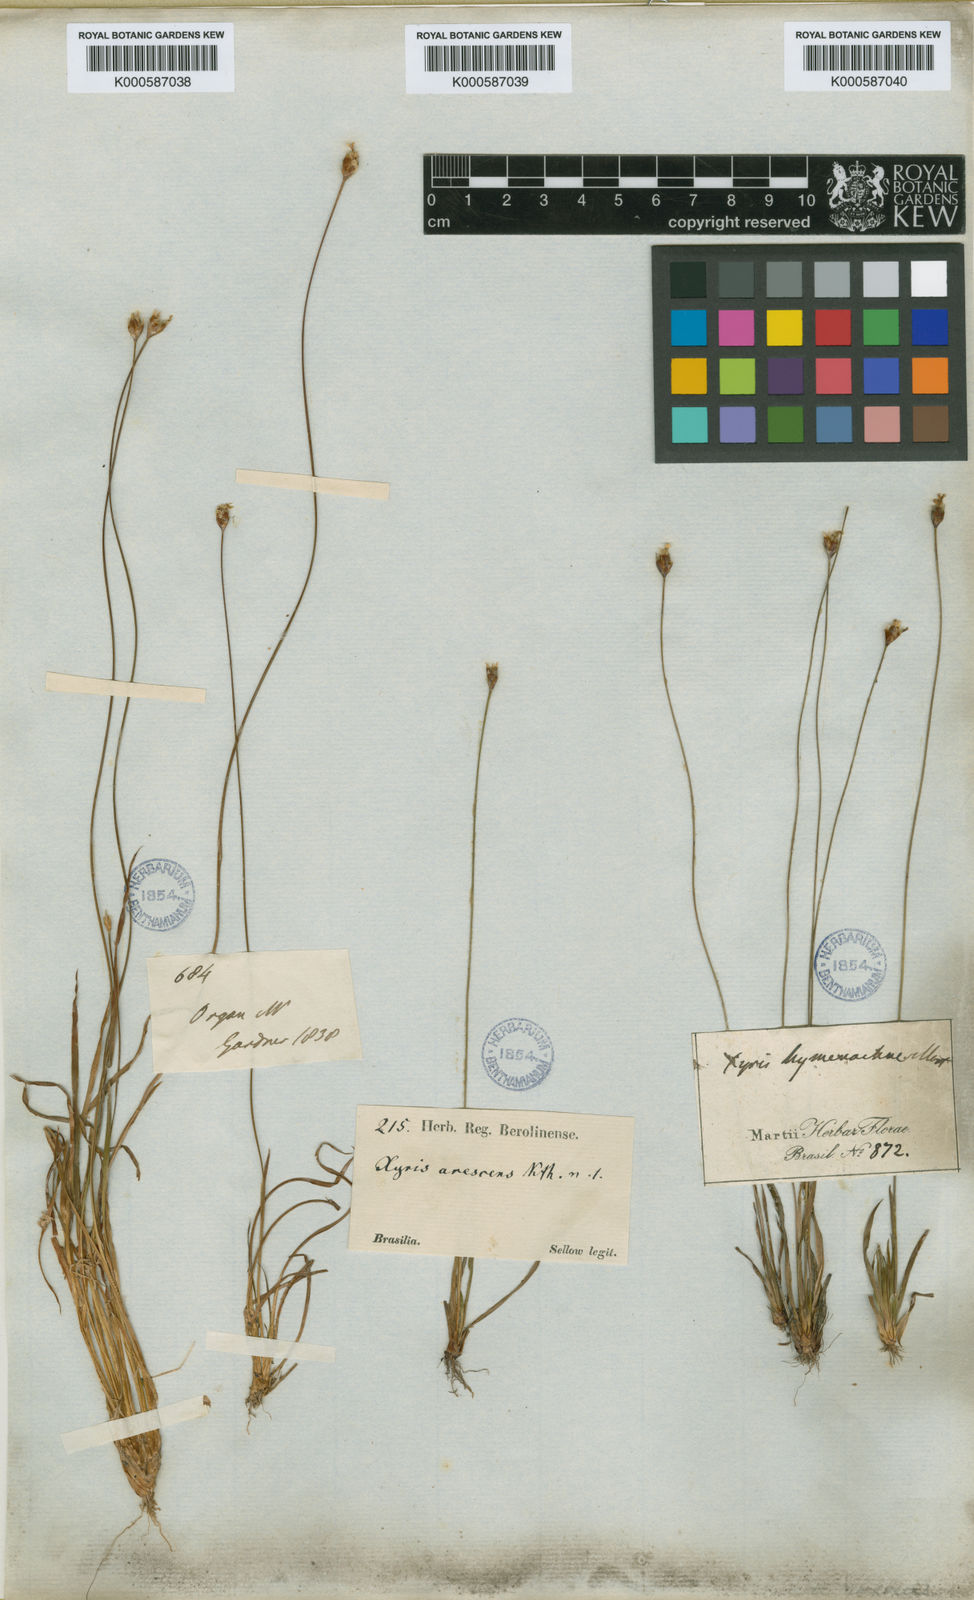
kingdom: Plantae
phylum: Tracheophyta
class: Liliopsida
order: Poales
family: Xyridaceae
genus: Xyris
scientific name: Xyris hymenachne
